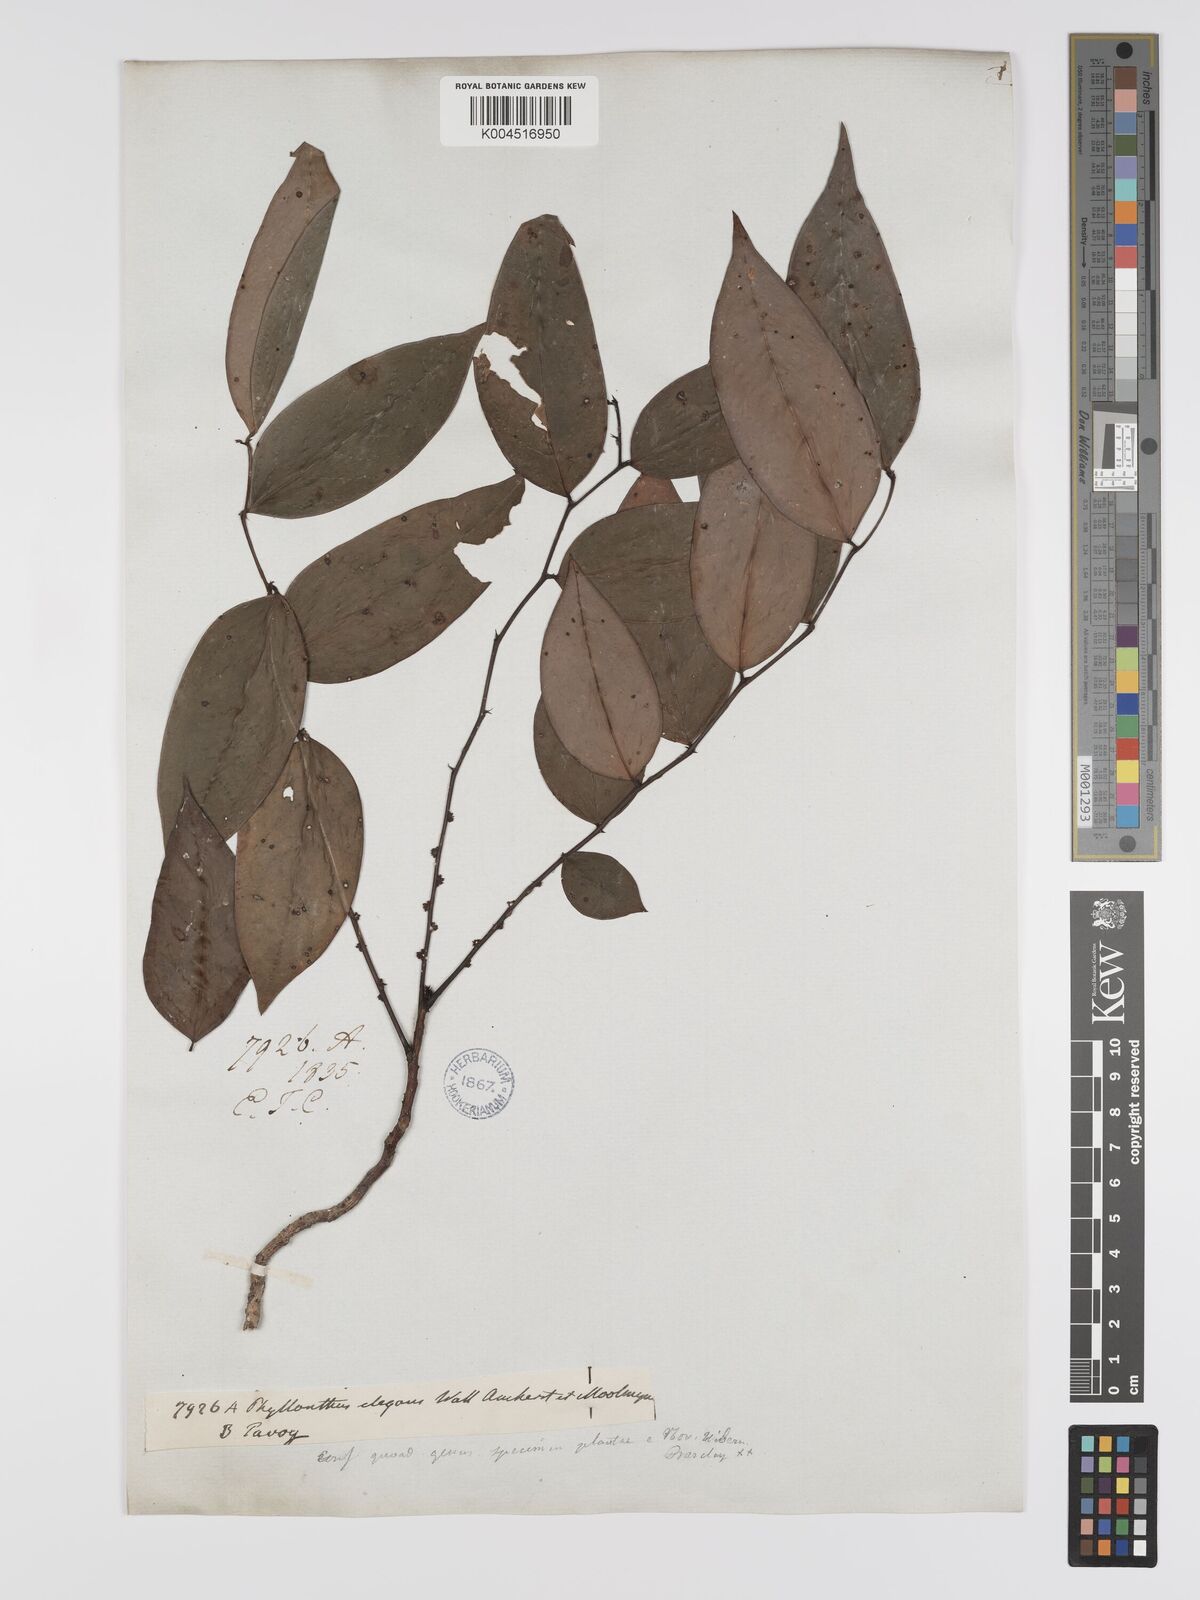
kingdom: Plantae
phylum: Tracheophyta
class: Magnoliopsida
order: Malpighiales
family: Phyllanthaceae
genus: Phyllanthus
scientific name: Phyllanthus elegans
